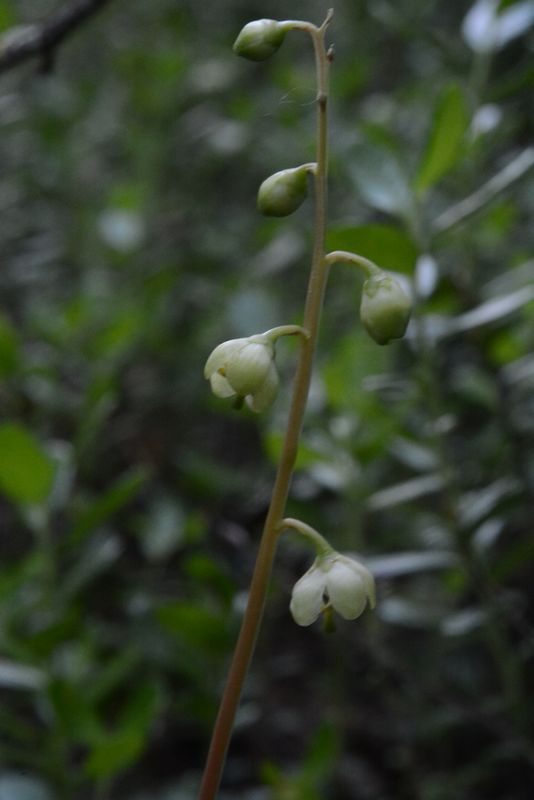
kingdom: Plantae
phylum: Tracheophyta
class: Magnoliopsida
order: Ericales
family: Ericaceae
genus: Pyrola
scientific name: Pyrola chlorantha
